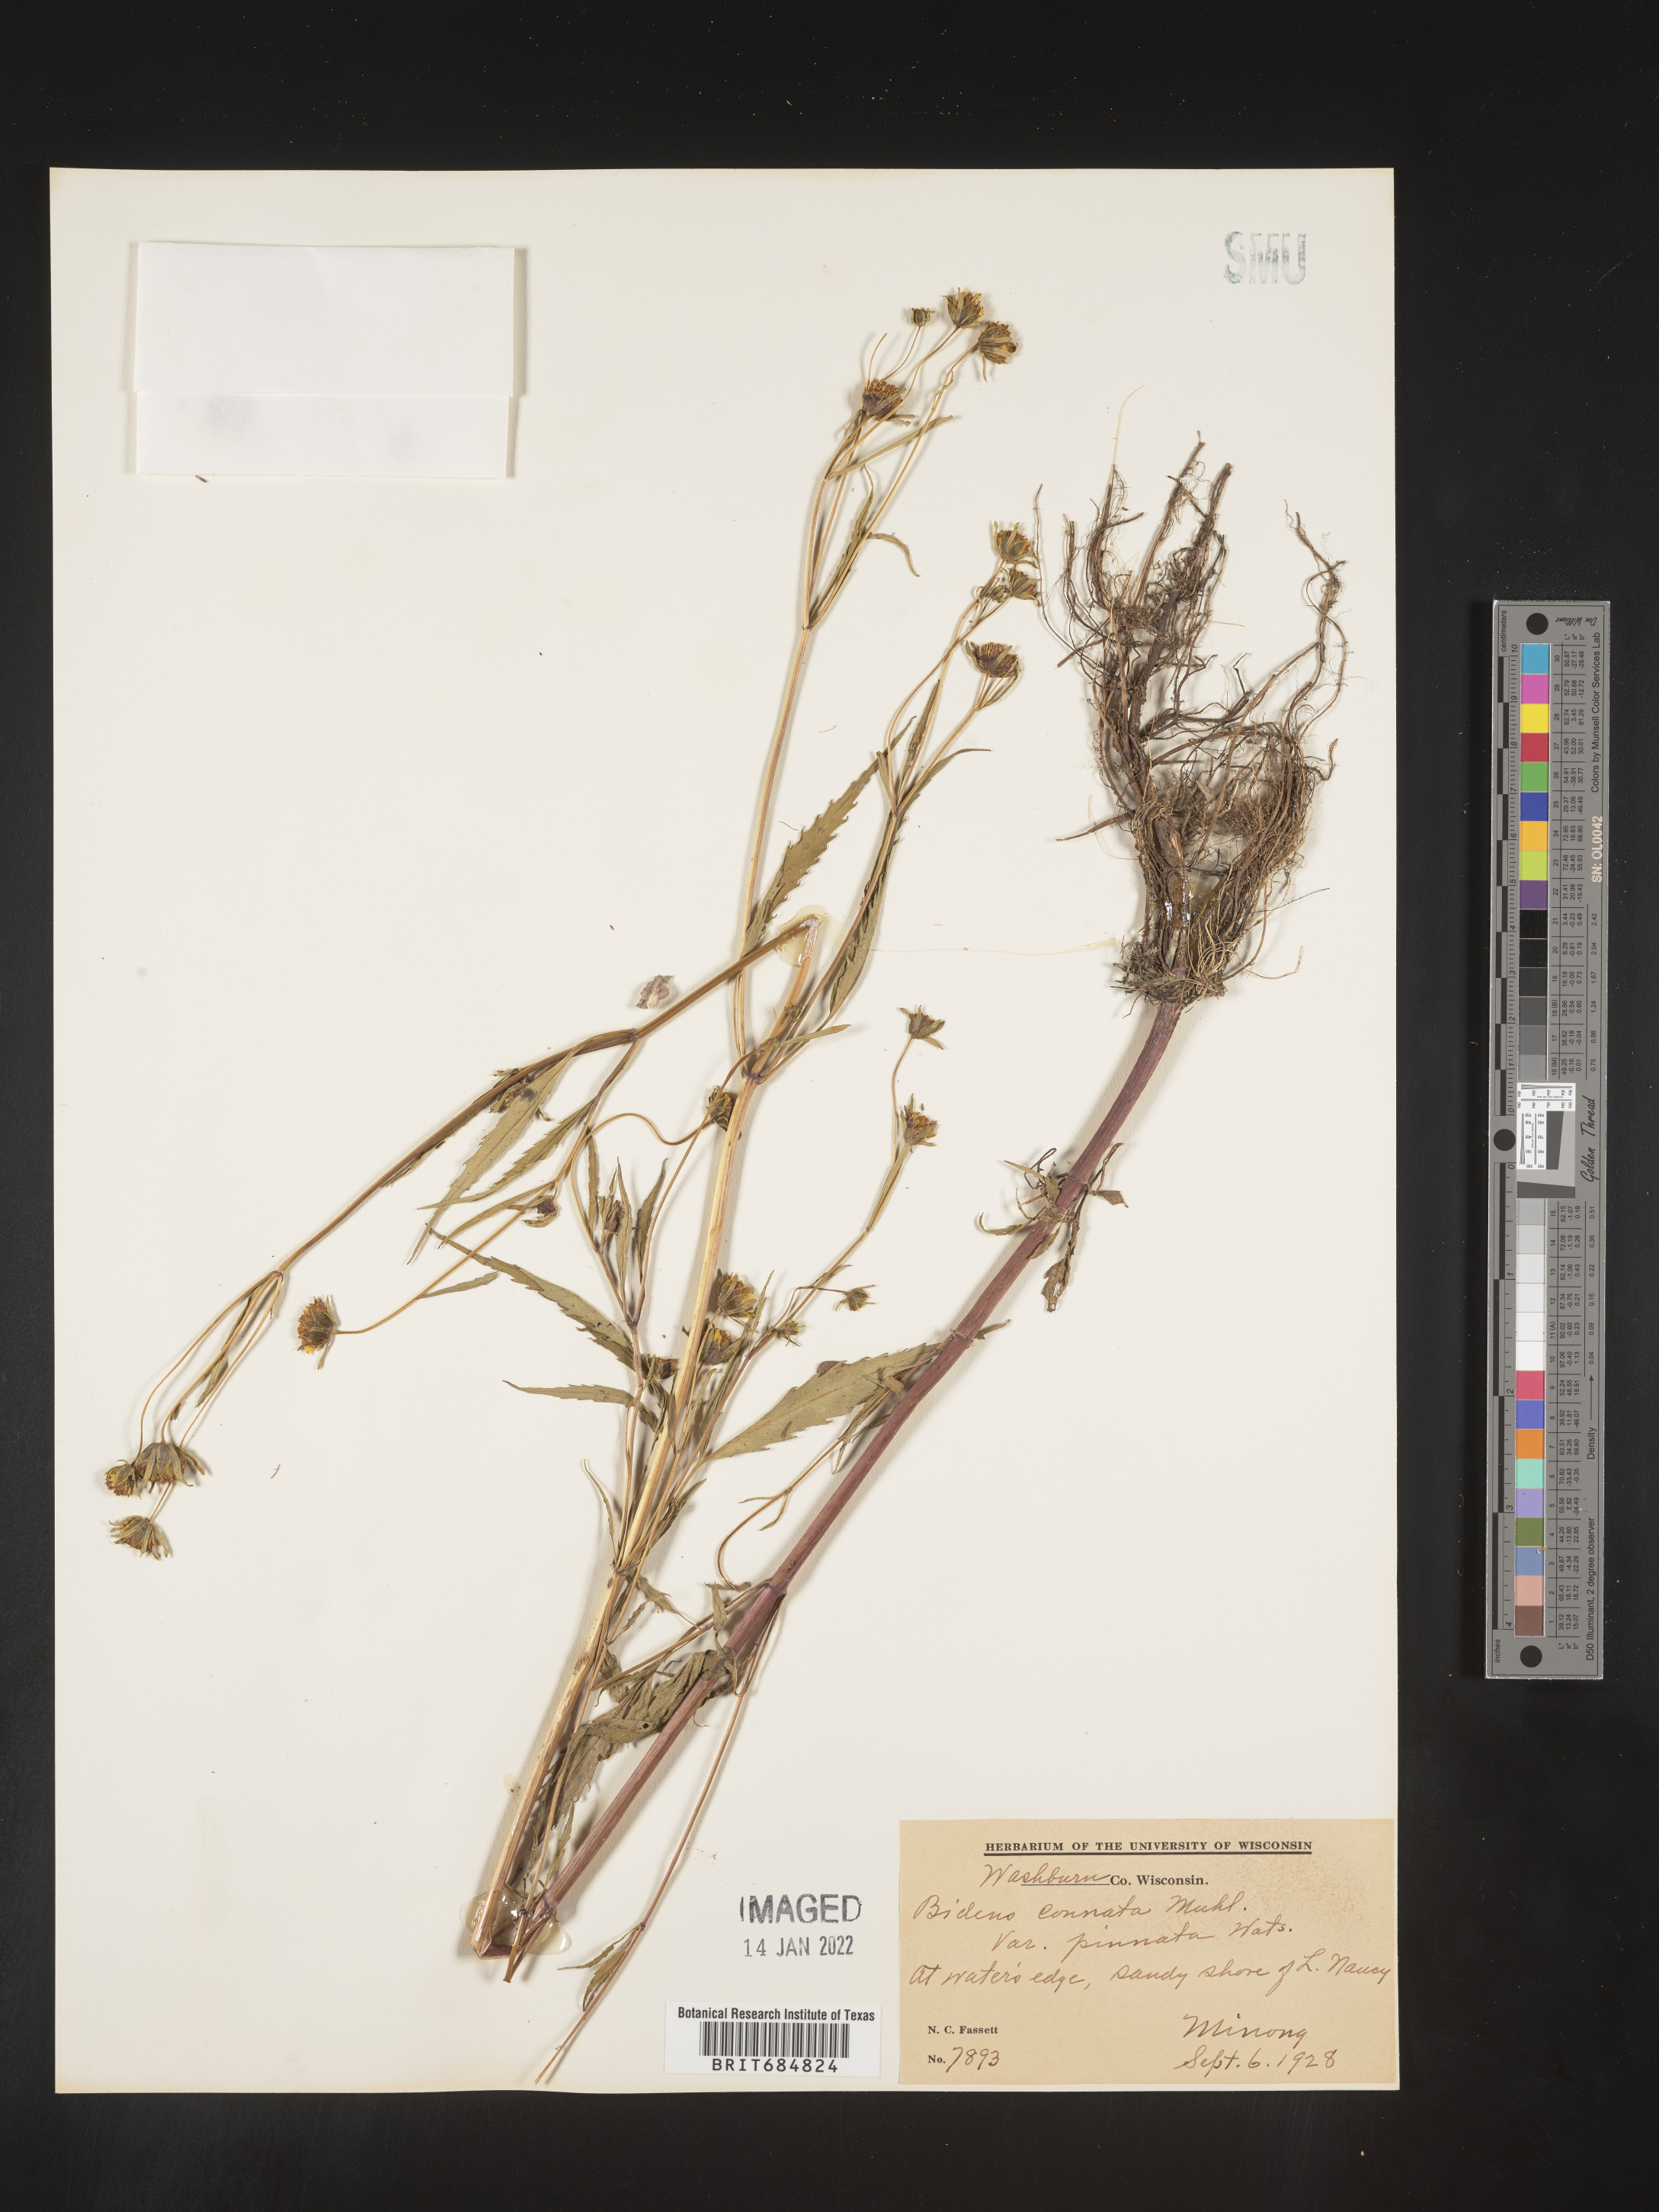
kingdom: Plantae
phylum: Tracheophyta
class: Magnoliopsida
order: Asterales
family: Asteraceae
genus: Bidens
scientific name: Bidens tripartita
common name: Trifid bur-marigold
